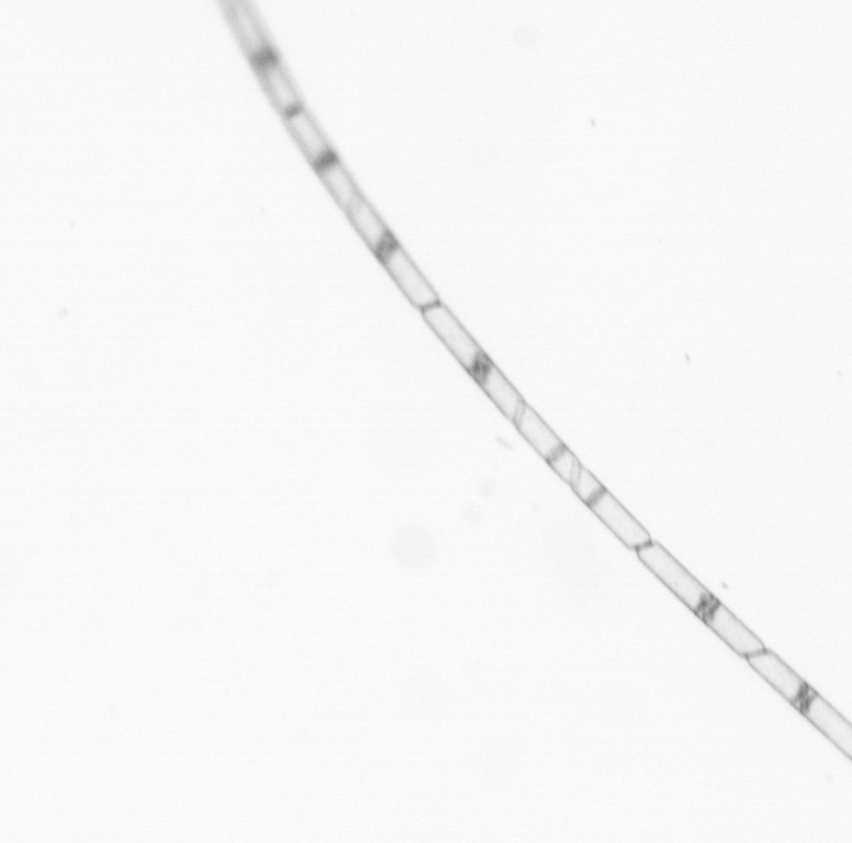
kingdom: Chromista
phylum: Ochrophyta
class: Bacillariophyceae
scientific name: Bacillariophyceae
